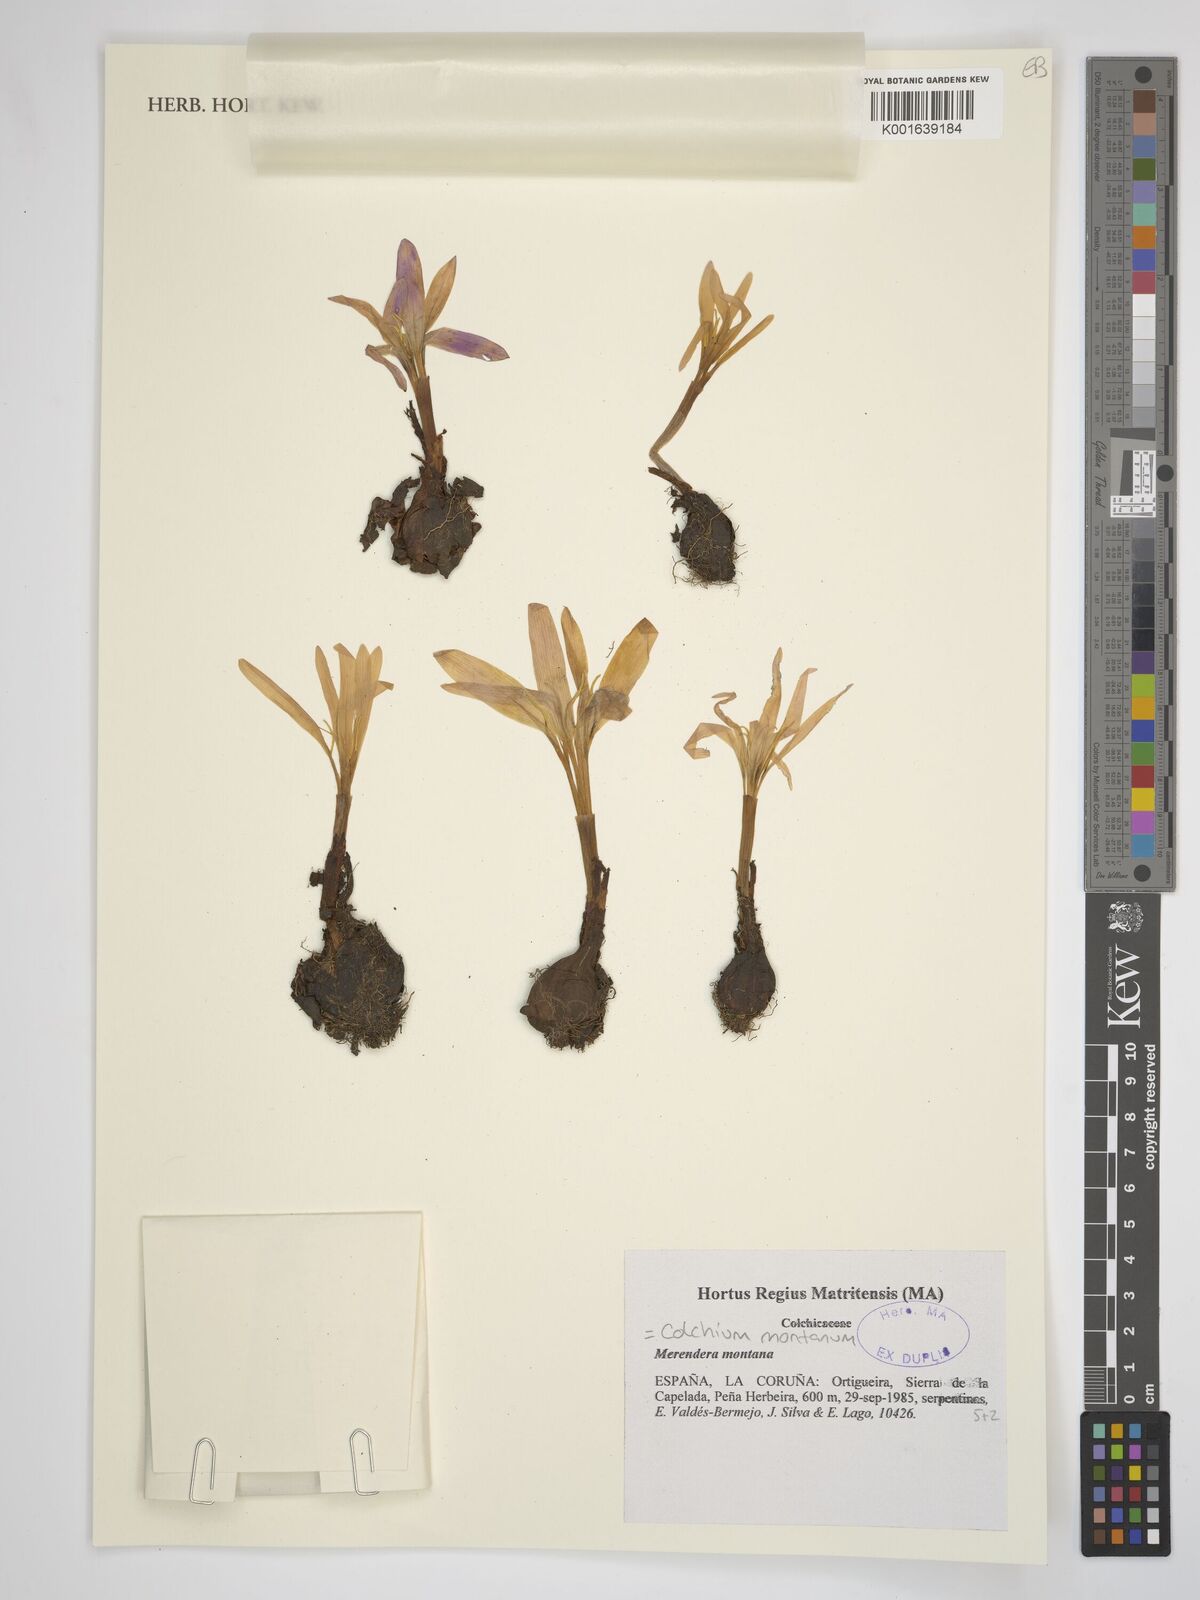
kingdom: Plantae
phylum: Tracheophyta
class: Liliopsida
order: Liliales
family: Colchicaceae
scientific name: Colchicaceae
